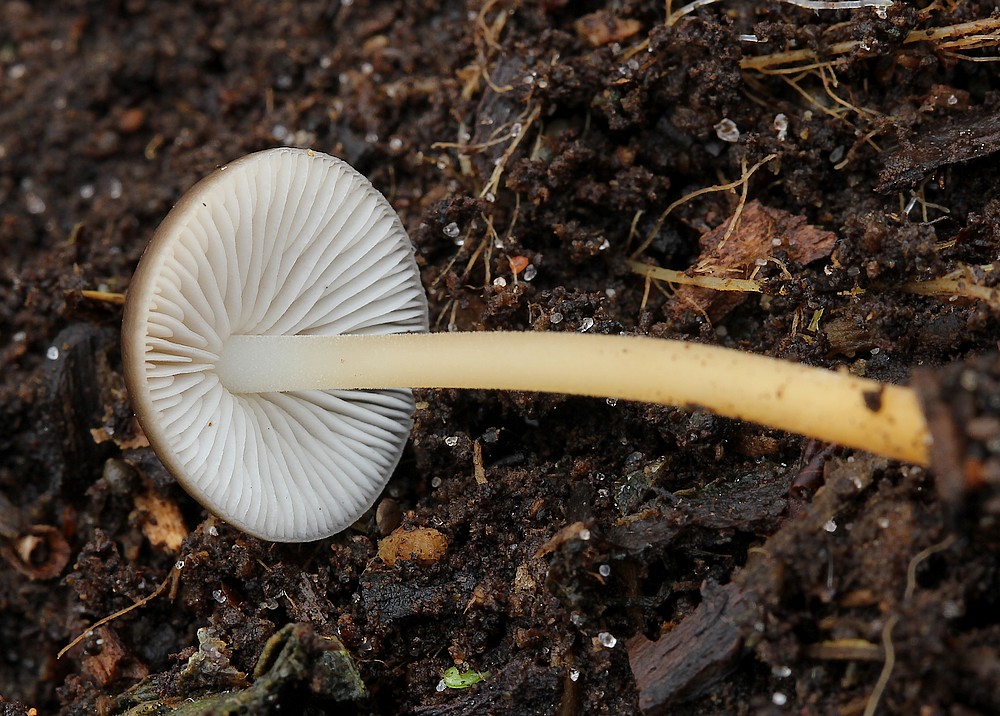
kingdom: Fungi
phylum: Basidiomycota
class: Agaricomycetes
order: Agaricales
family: Physalacriaceae
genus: Strobilurus
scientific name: Strobilurus
